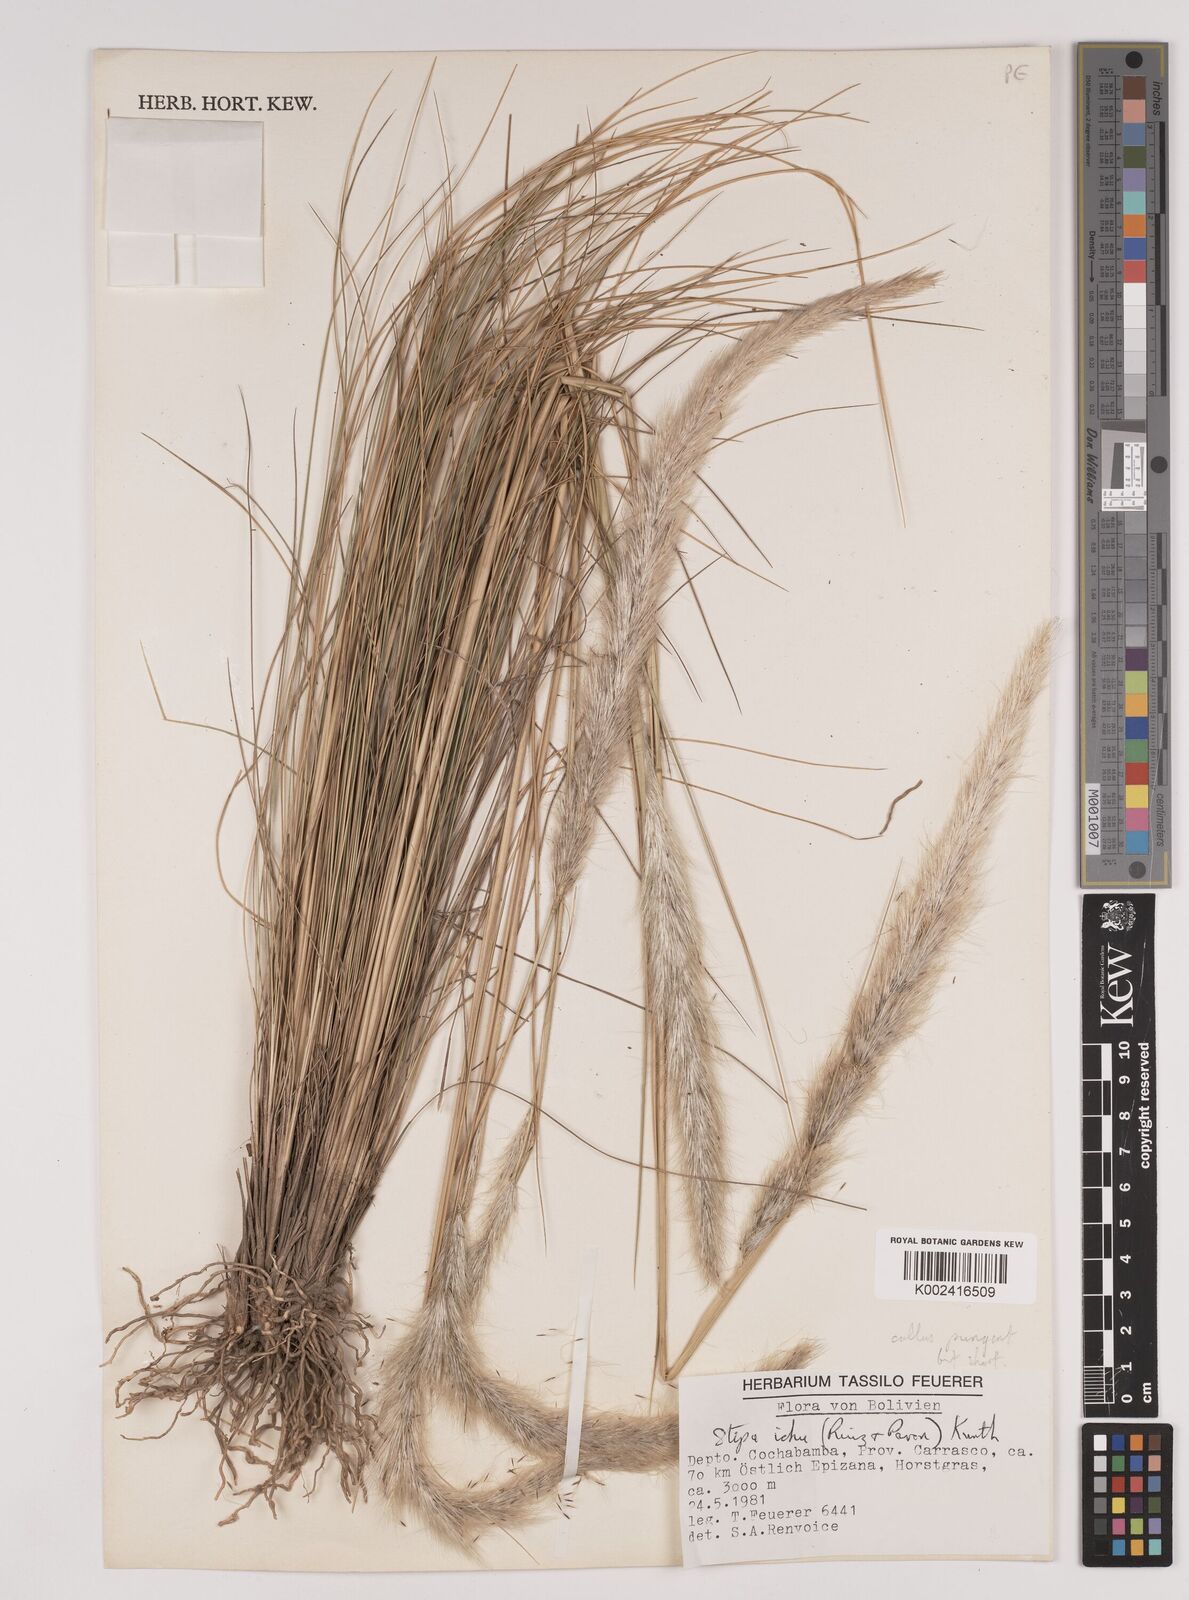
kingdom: Plantae
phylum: Tracheophyta
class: Liliopsida
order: Poales
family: Poaceae
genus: Jarava
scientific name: Jarava ichu
